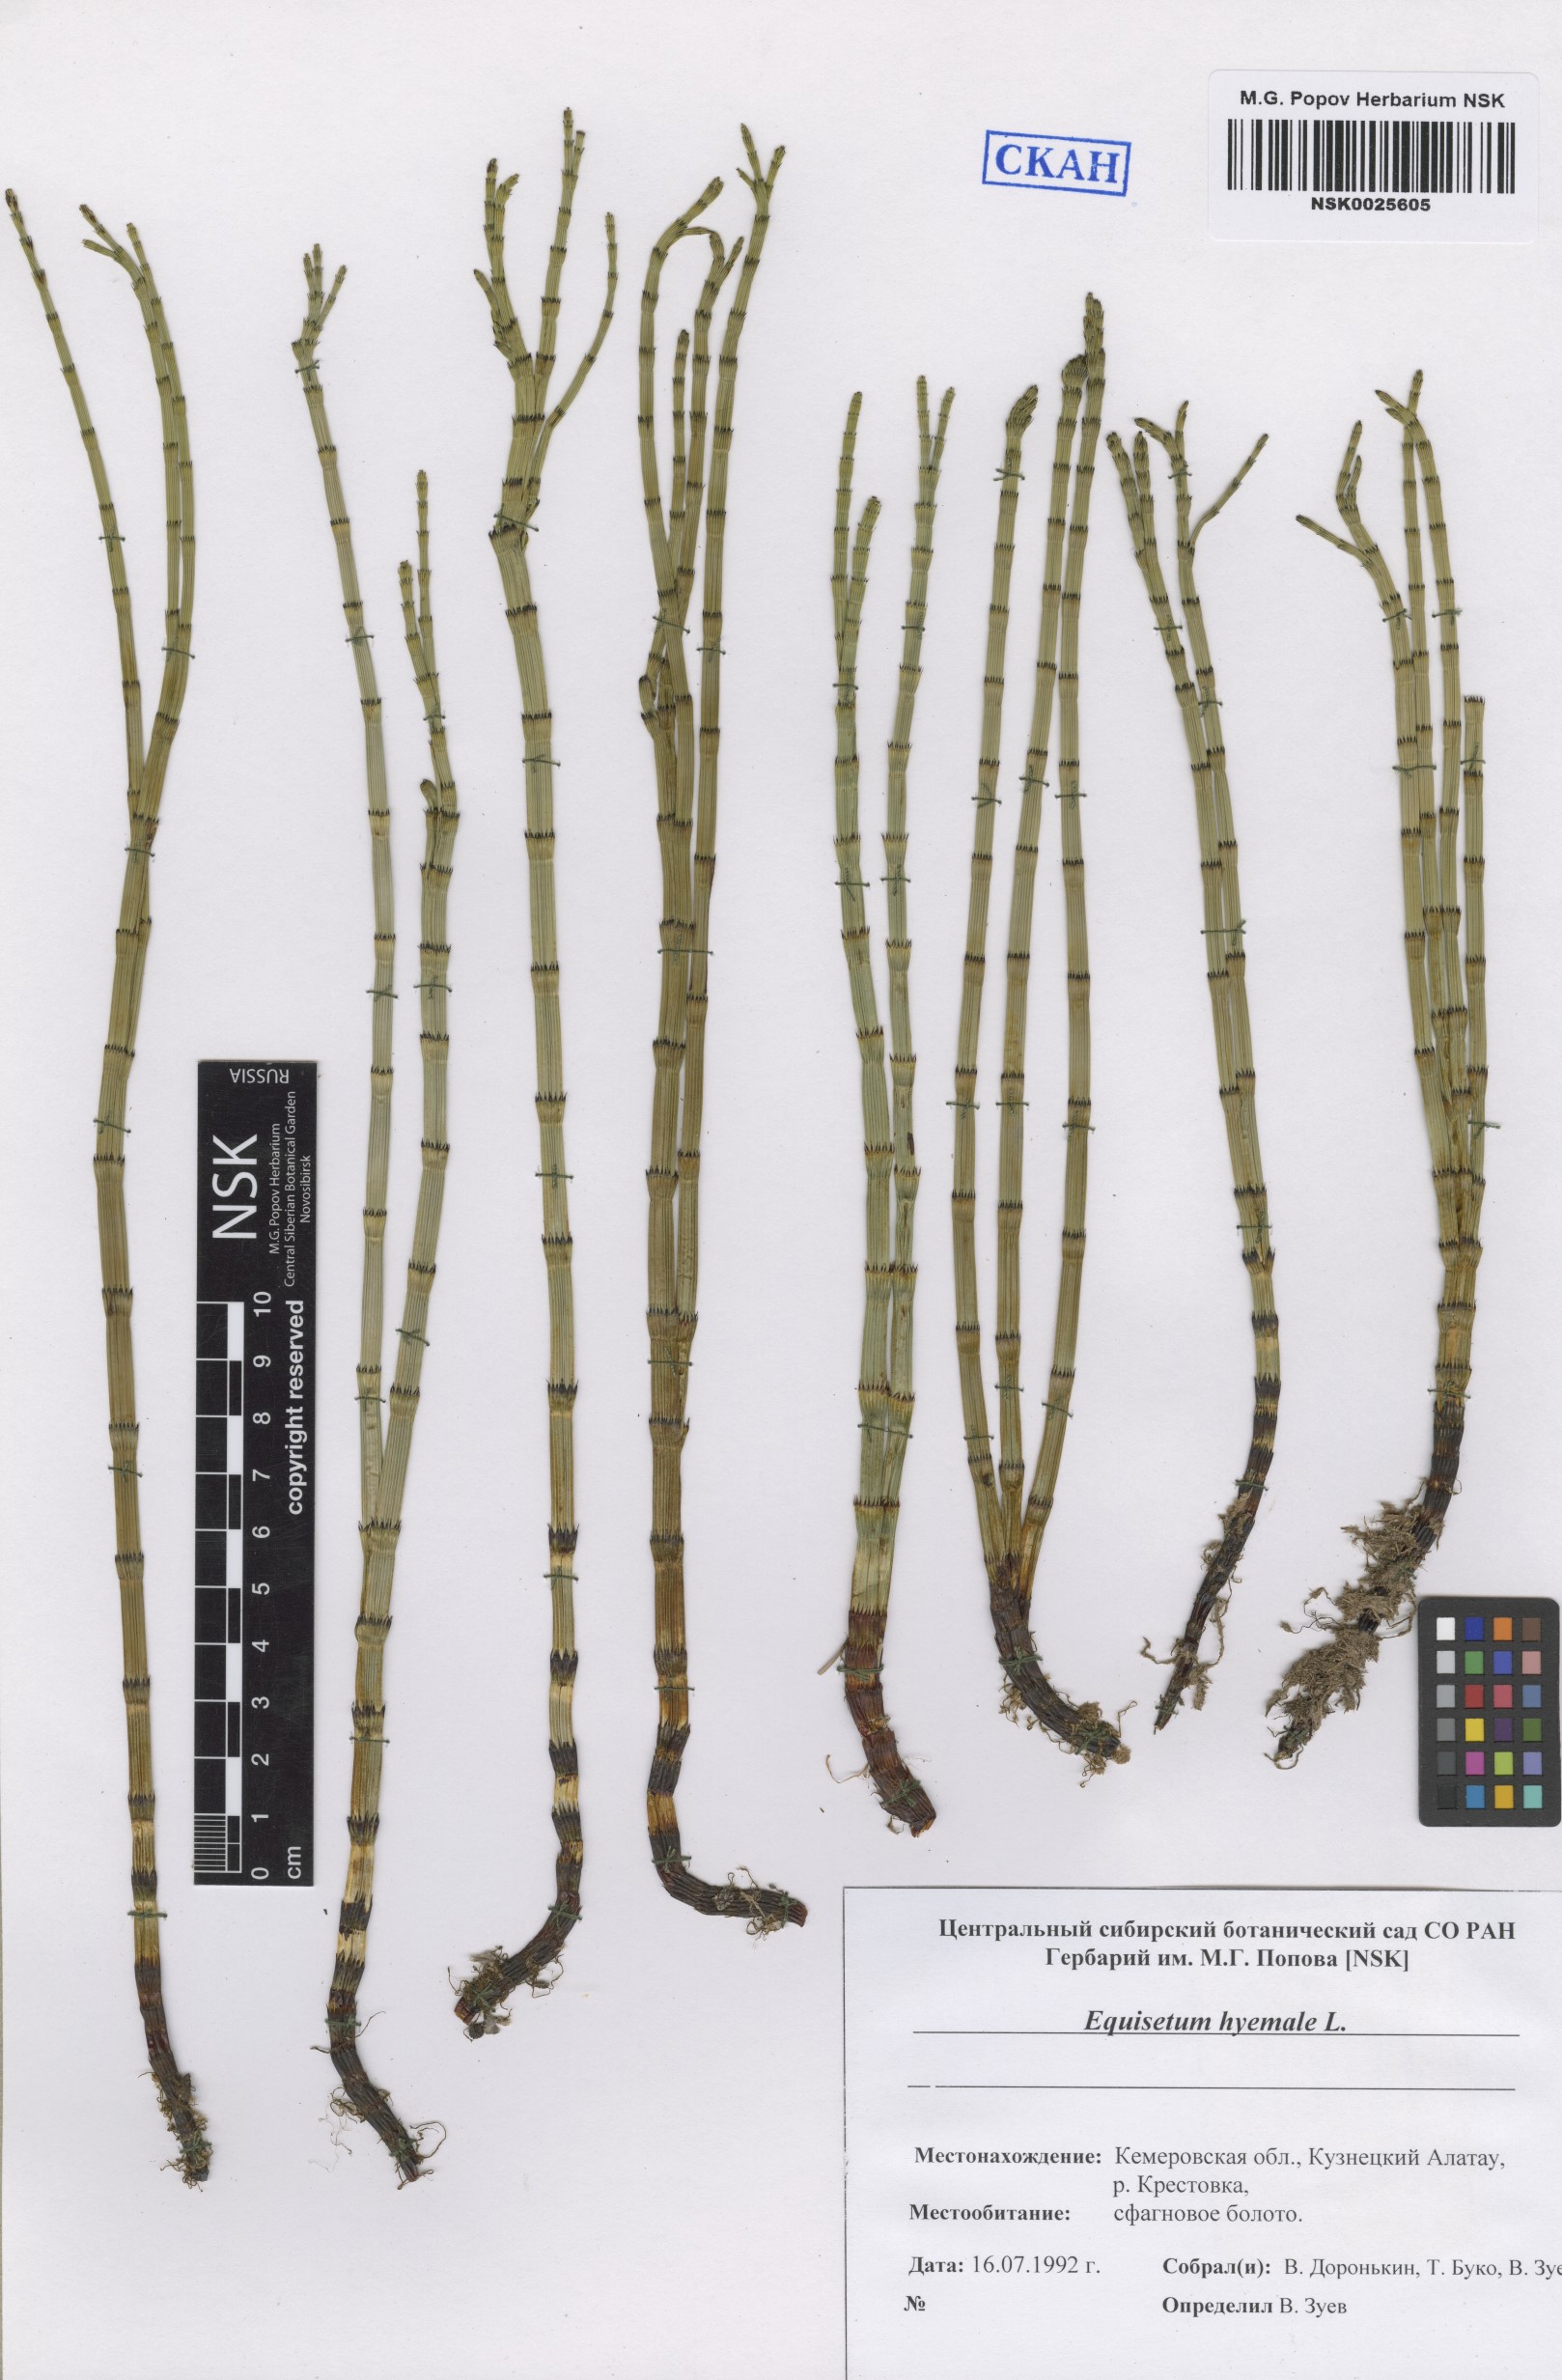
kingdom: Plantae
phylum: Tracheophyta
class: Polypodiopsida
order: Equisetales
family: Equisetaceae
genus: Equisetum
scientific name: Equisetum hyemale
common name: Rough horsetail
